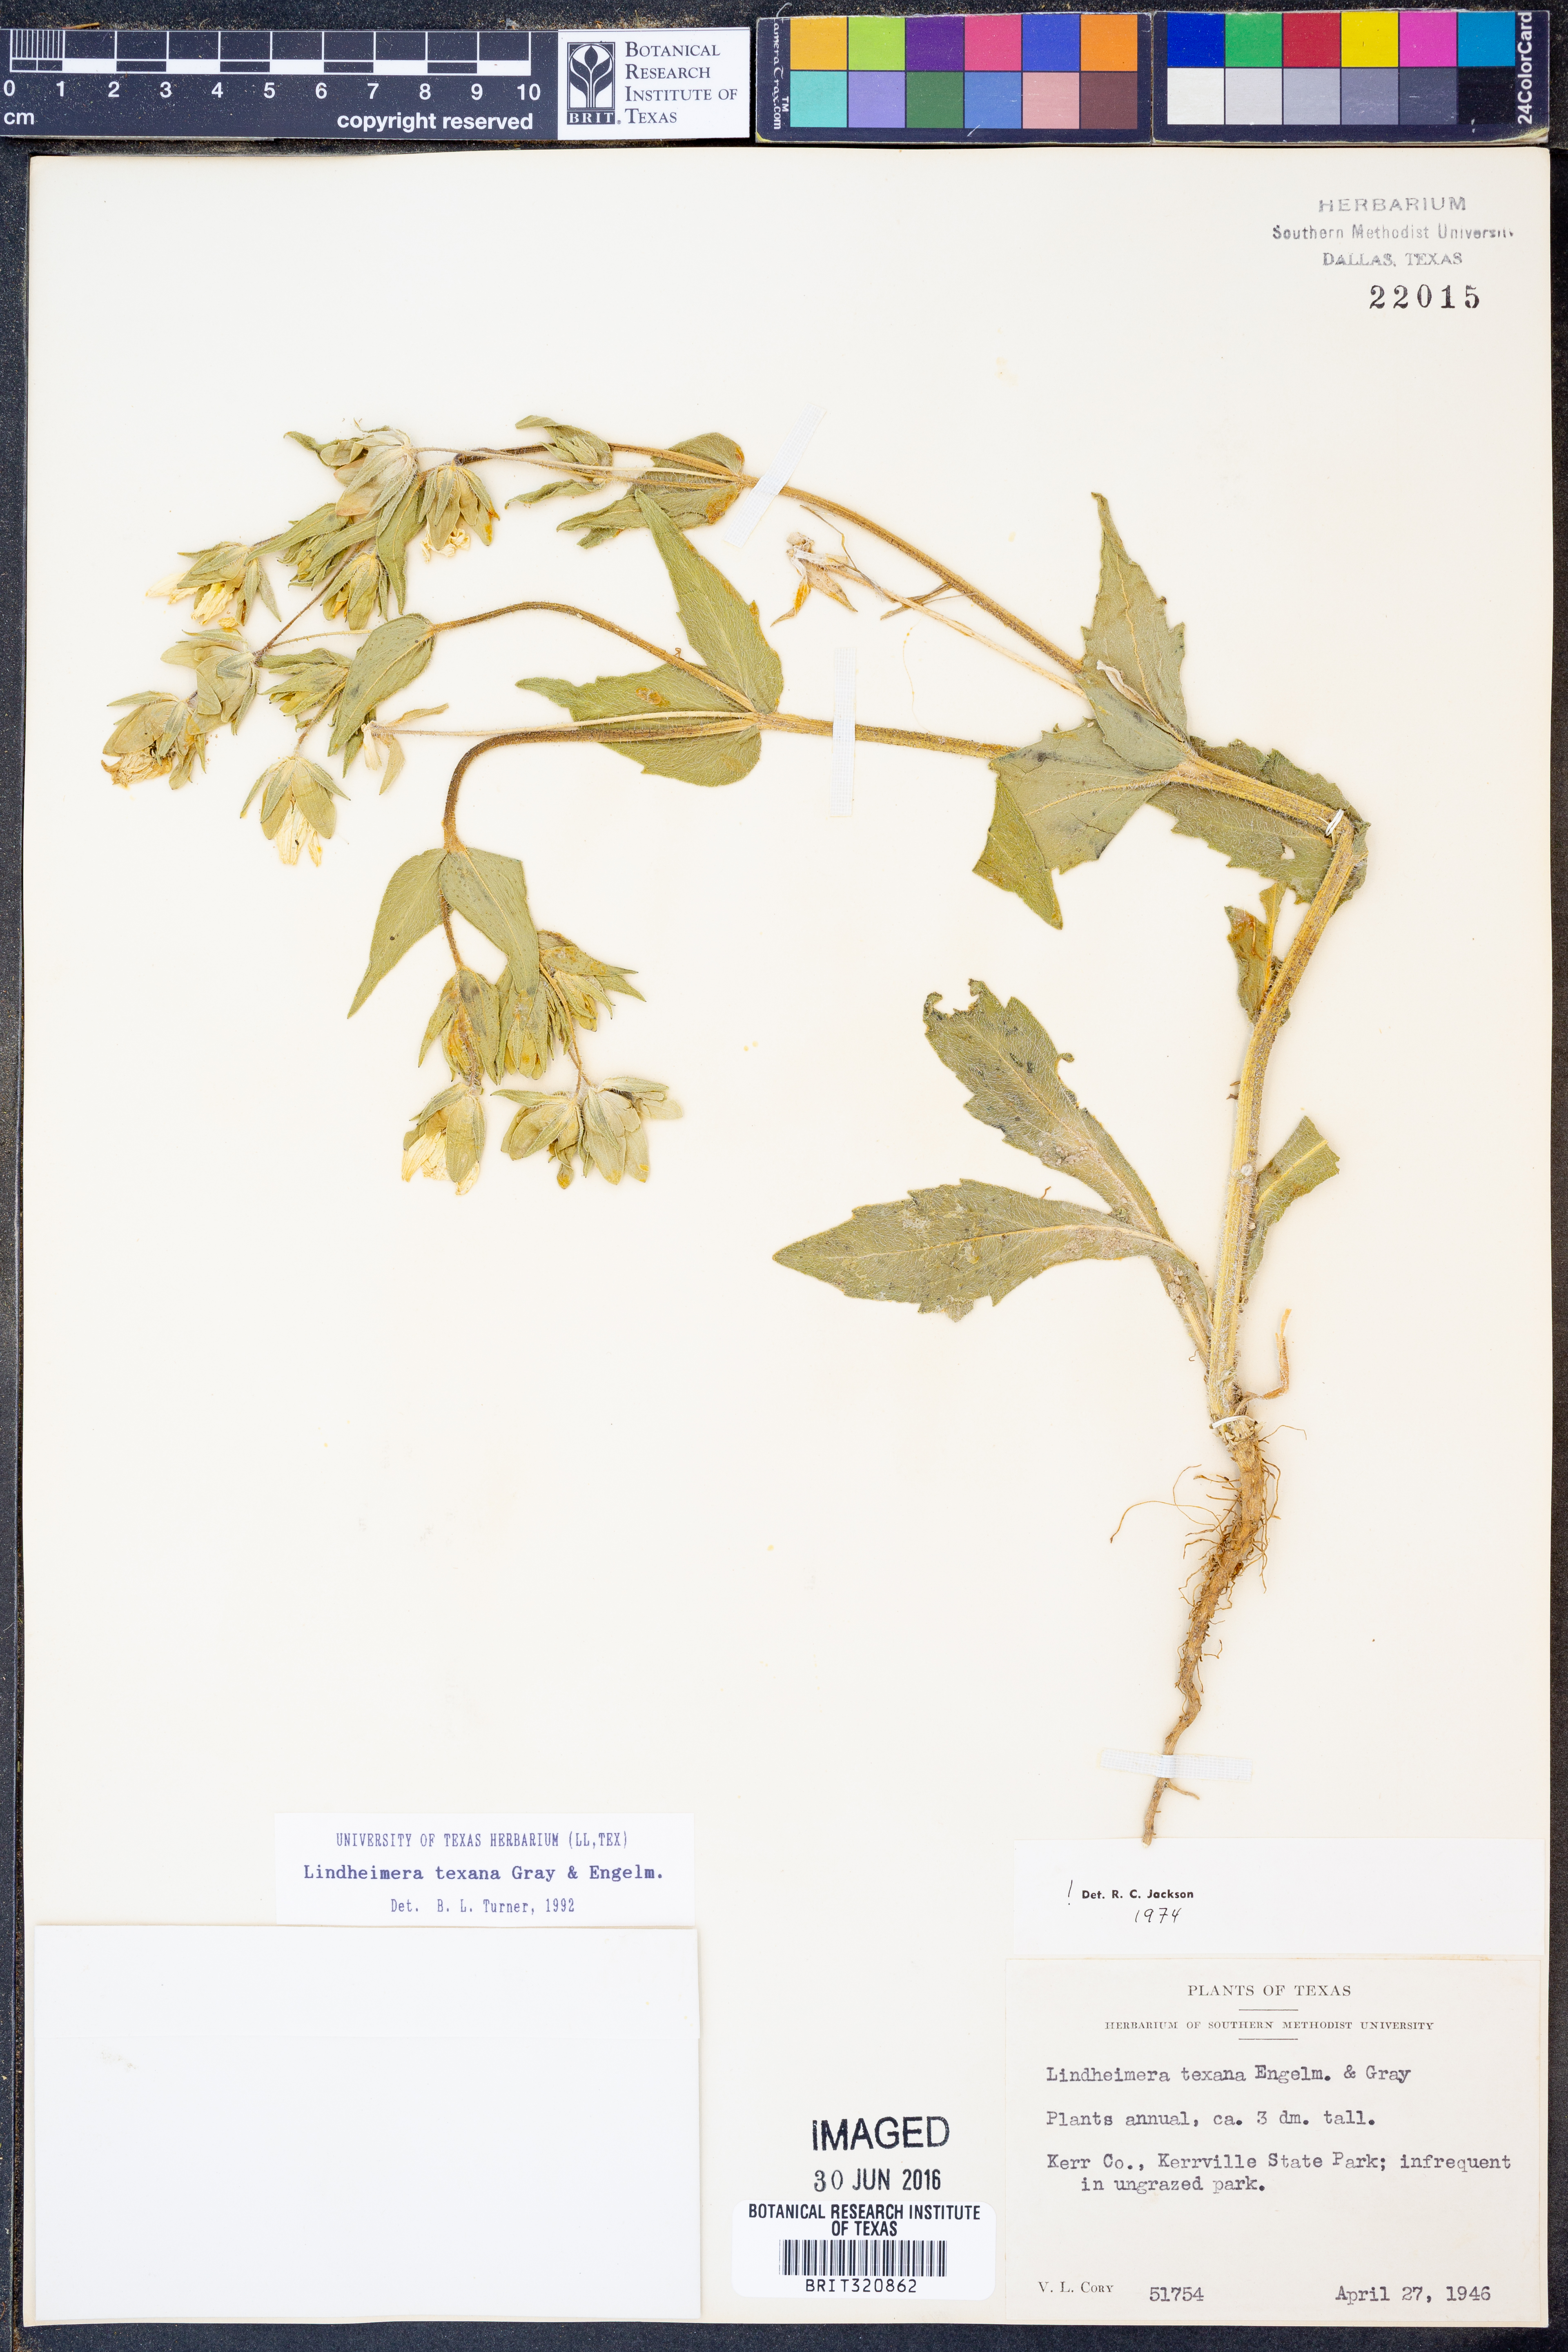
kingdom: Plantae
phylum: Tracheophyta
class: Magnoliopsida
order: Asterales
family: Asteraceae
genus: Lindheimera
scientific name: Lindheimera texana
